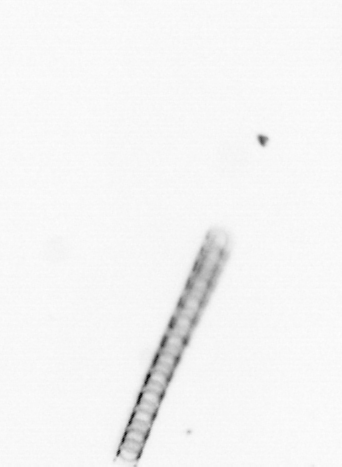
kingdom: Chromista
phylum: Ochrophyta
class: Bacillariophyceae
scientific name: Bacillariophyceae
